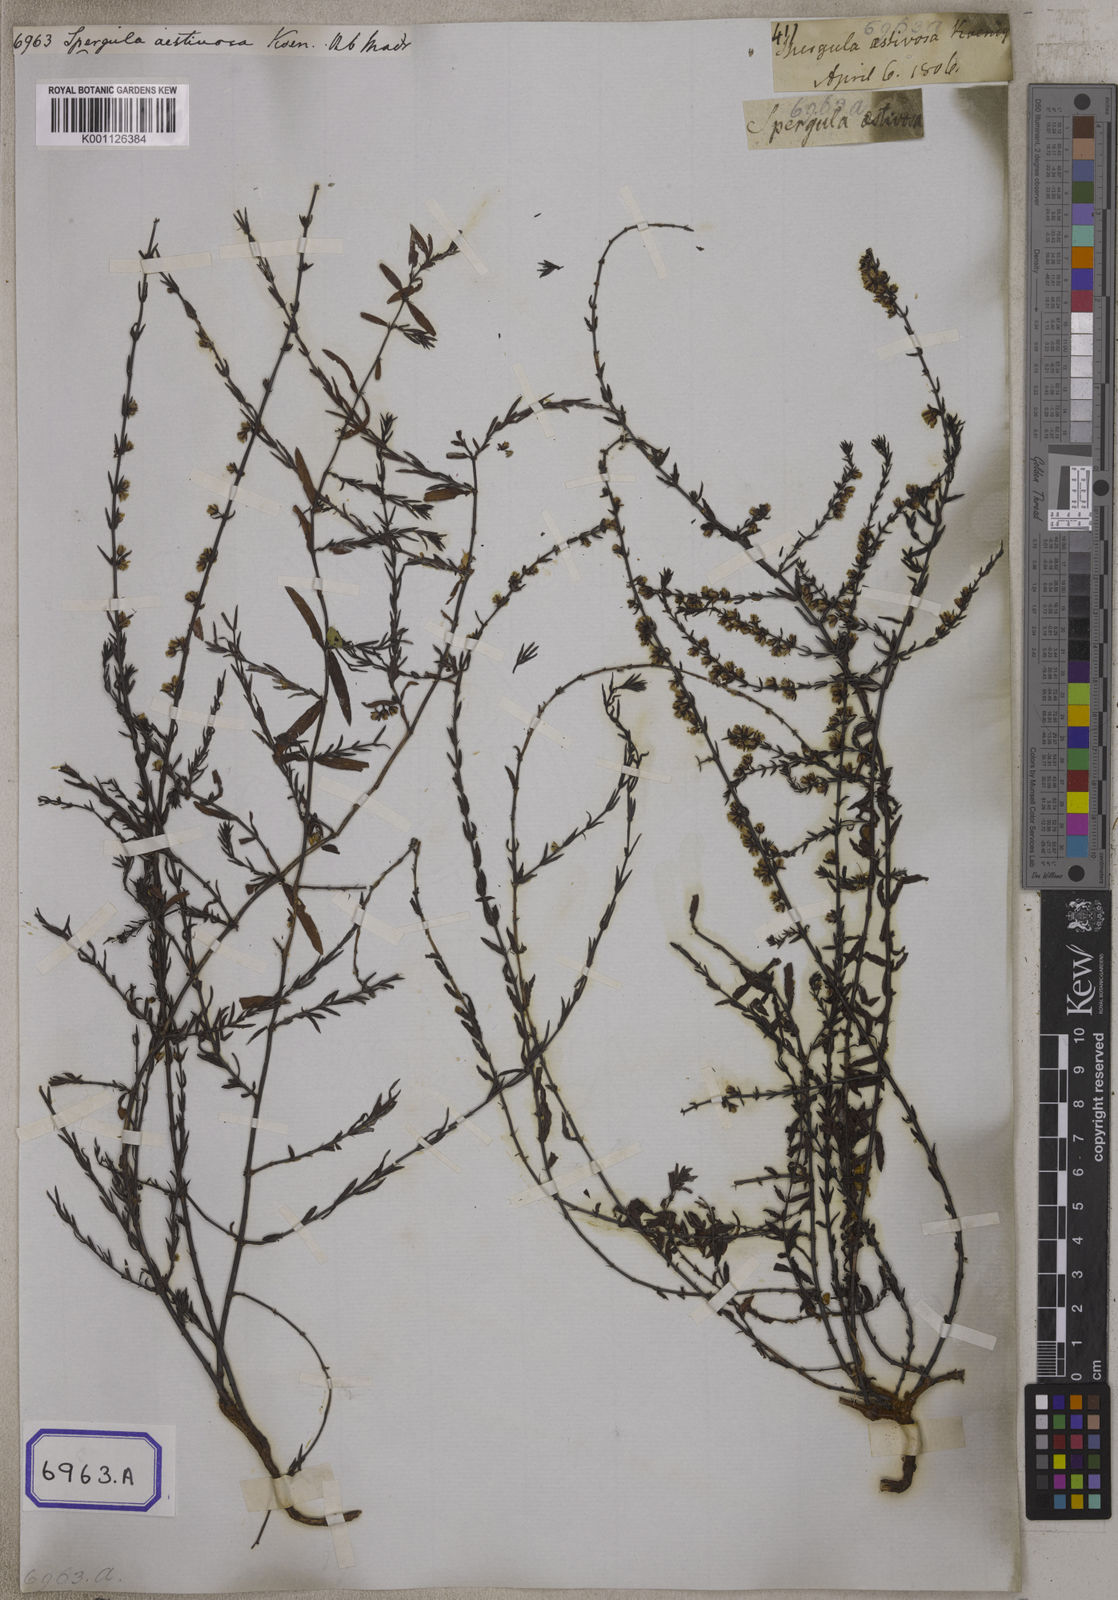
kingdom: Plantae
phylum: Tracheophyta
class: Magnoliopsida
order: Caryophyllales
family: Caryophyllaceae
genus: Spergula
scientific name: Spergula
